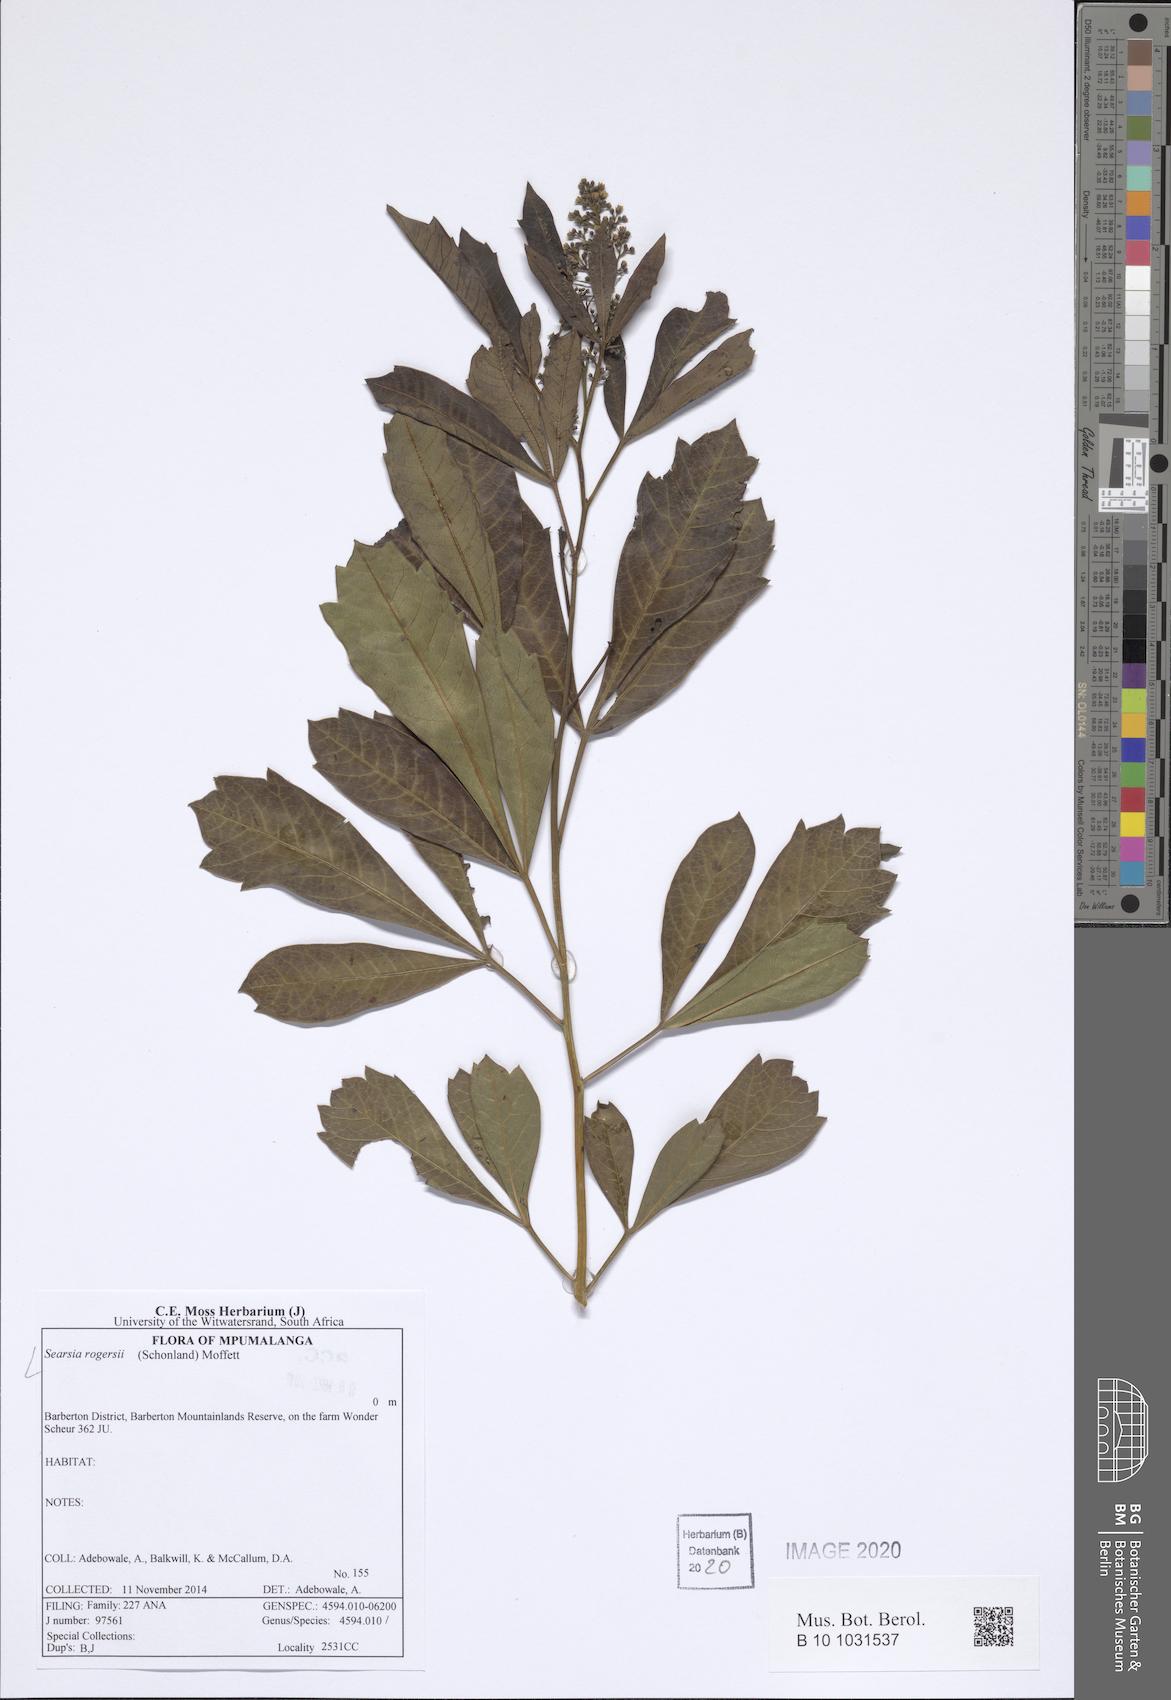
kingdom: Plantae
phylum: Tracheophyta
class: Magnoliopsida
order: Sapindales
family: Anacardiaceae
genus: Searsia
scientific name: Searsia rogersii
